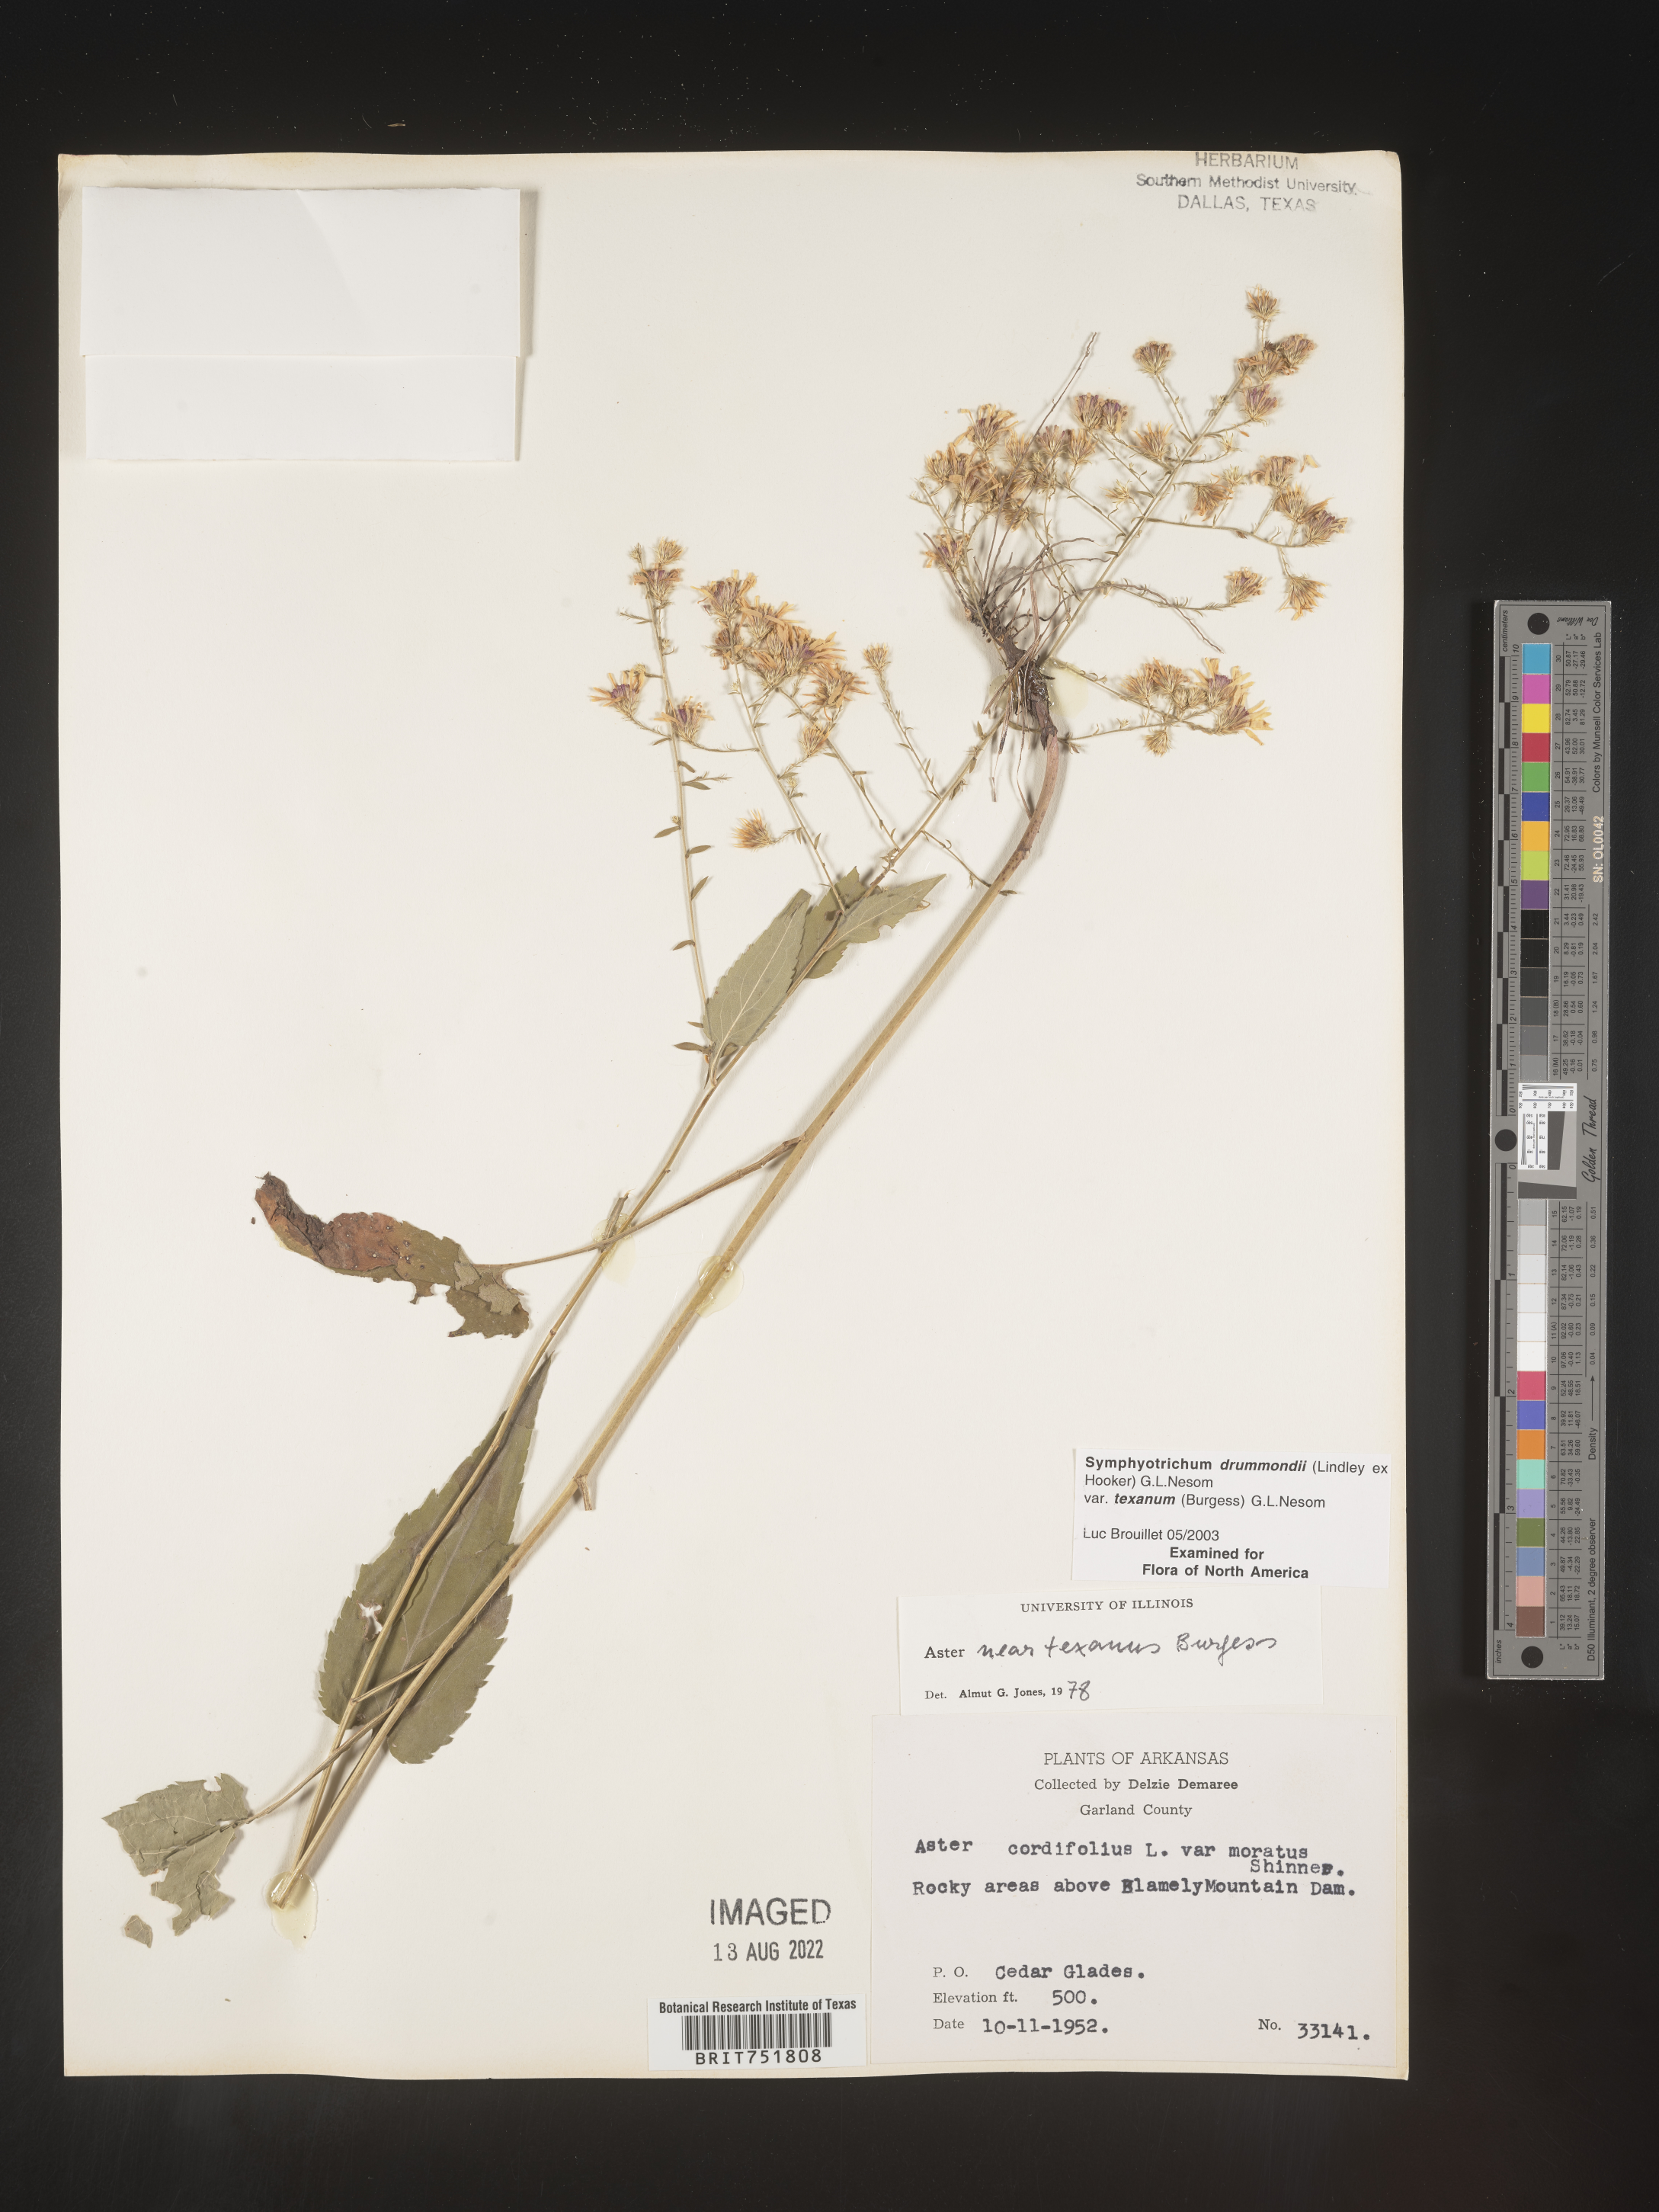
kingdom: Plantae
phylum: Tracheophyta
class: Magnoliopsida
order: Asterales
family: Asteraceae
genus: Symphyotrichum
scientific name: Symphyotrichum drummondii
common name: Drummond's aster
